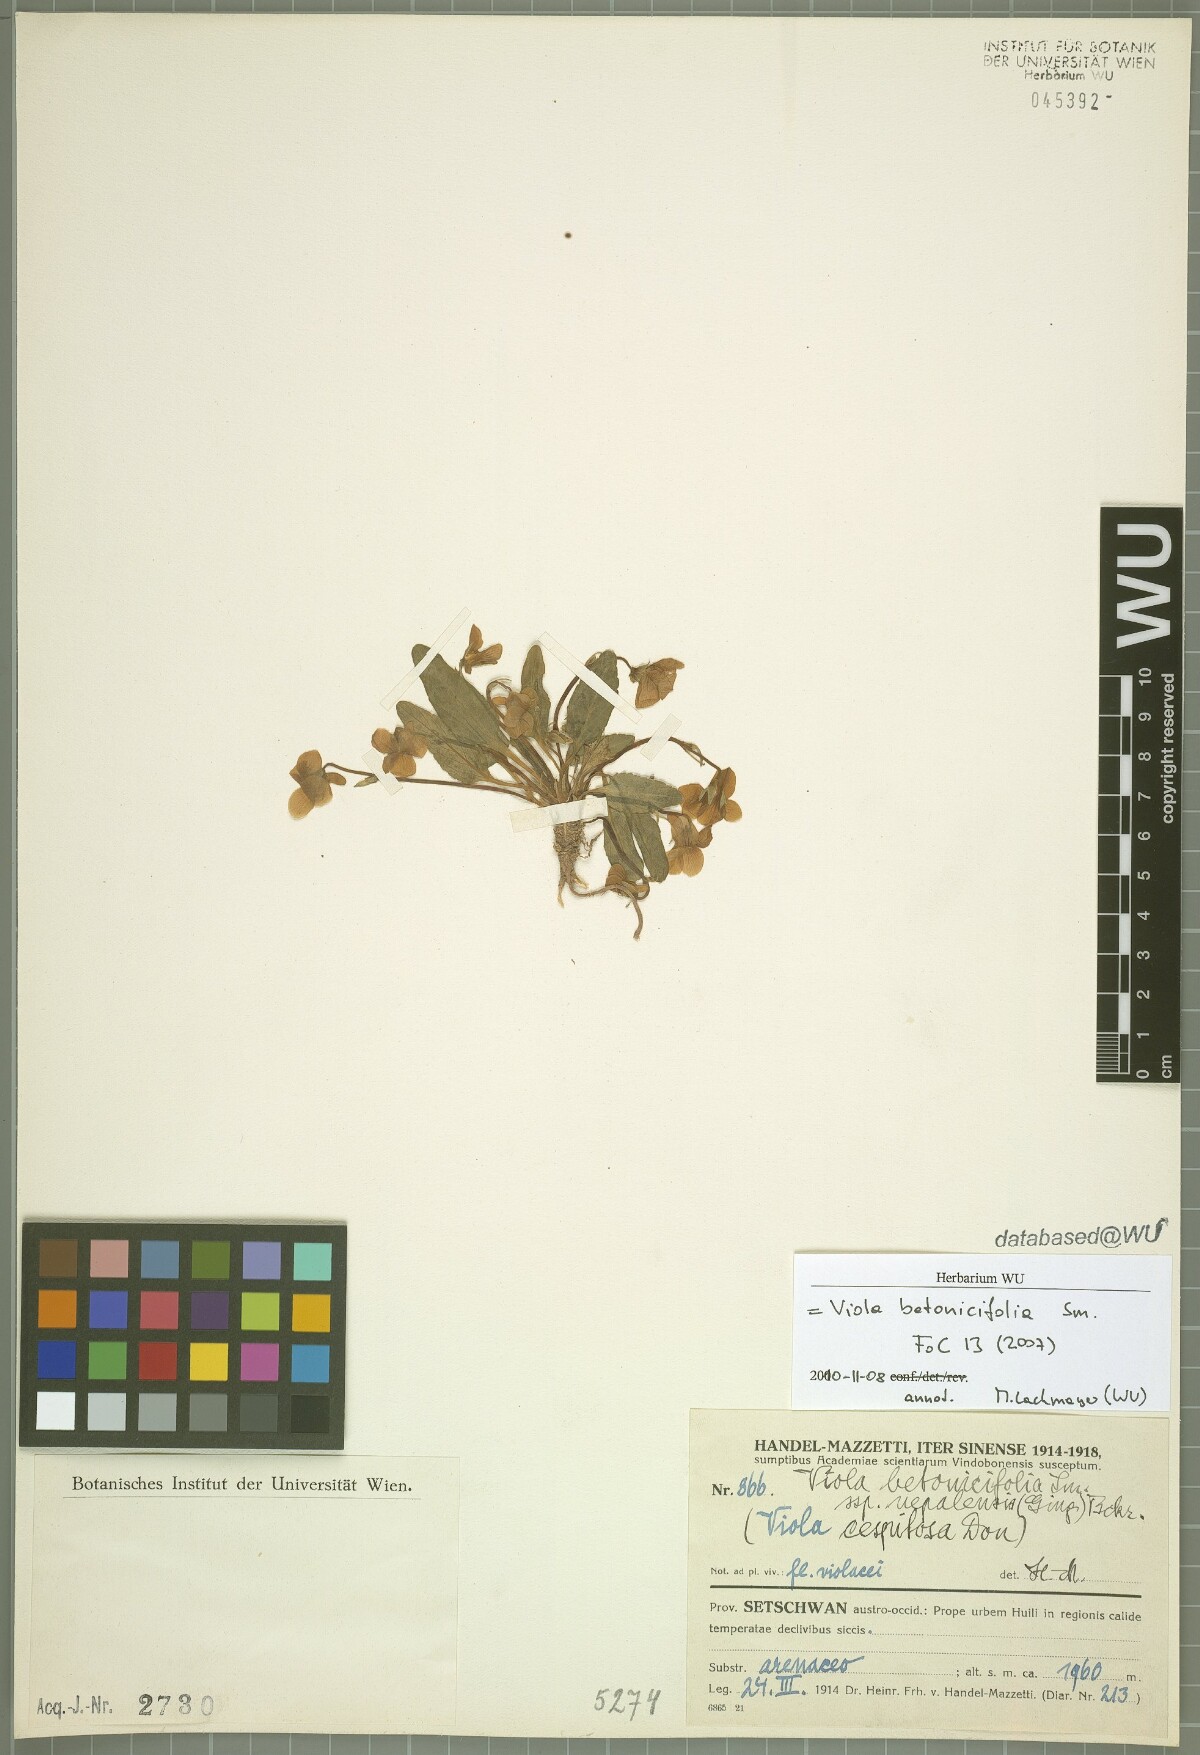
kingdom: Plantae
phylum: Tracheophyta
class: Magnoliopsida
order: Malpighiales
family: Violaceae
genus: Viola
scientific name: Viola betonicifolia
